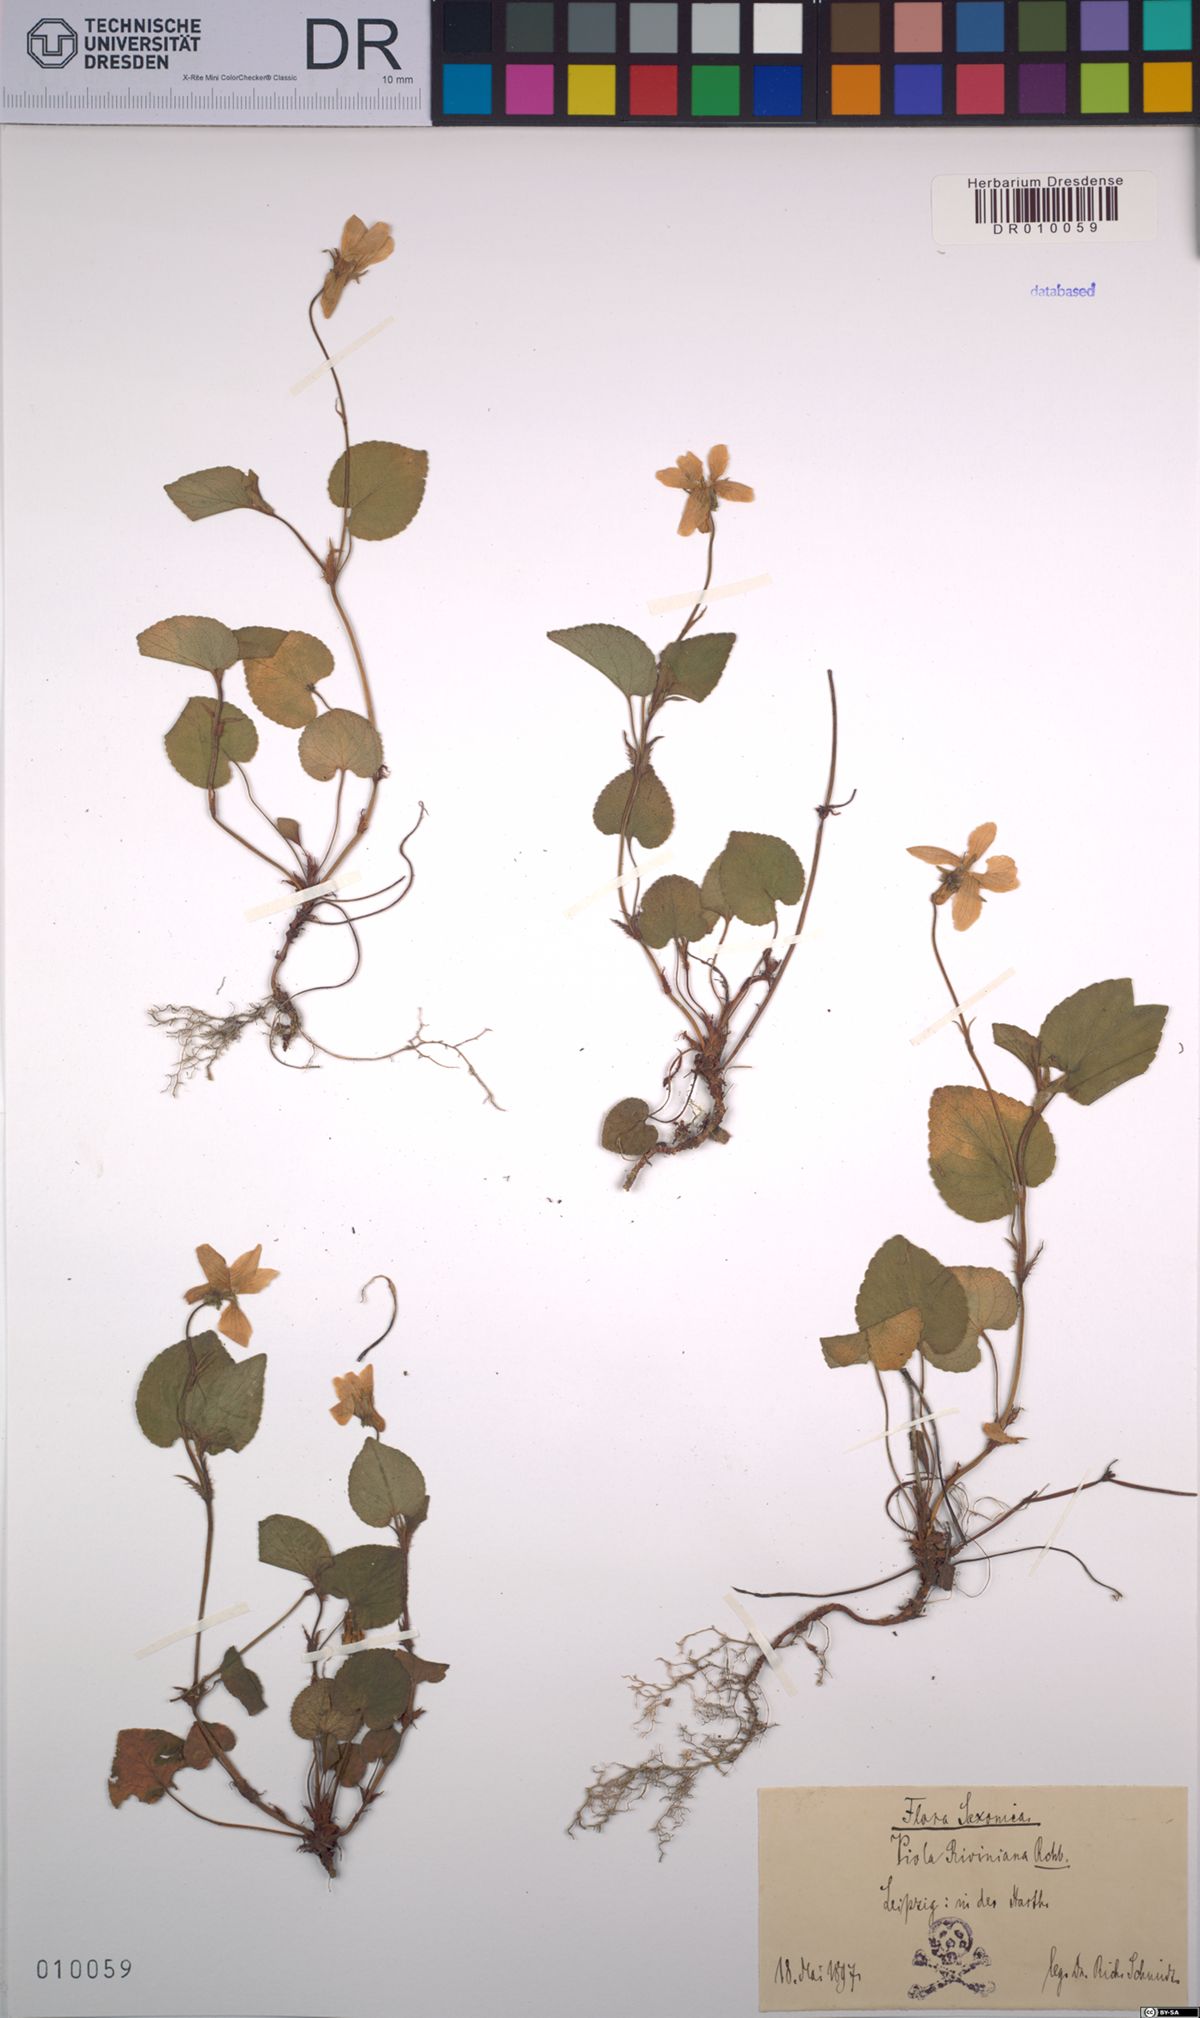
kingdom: Plantae
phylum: Tracheophyta
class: Magnoliopsida
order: Malpighiales
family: Violaceae
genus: Viola
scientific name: Viola riviniana
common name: Common dog-violet
